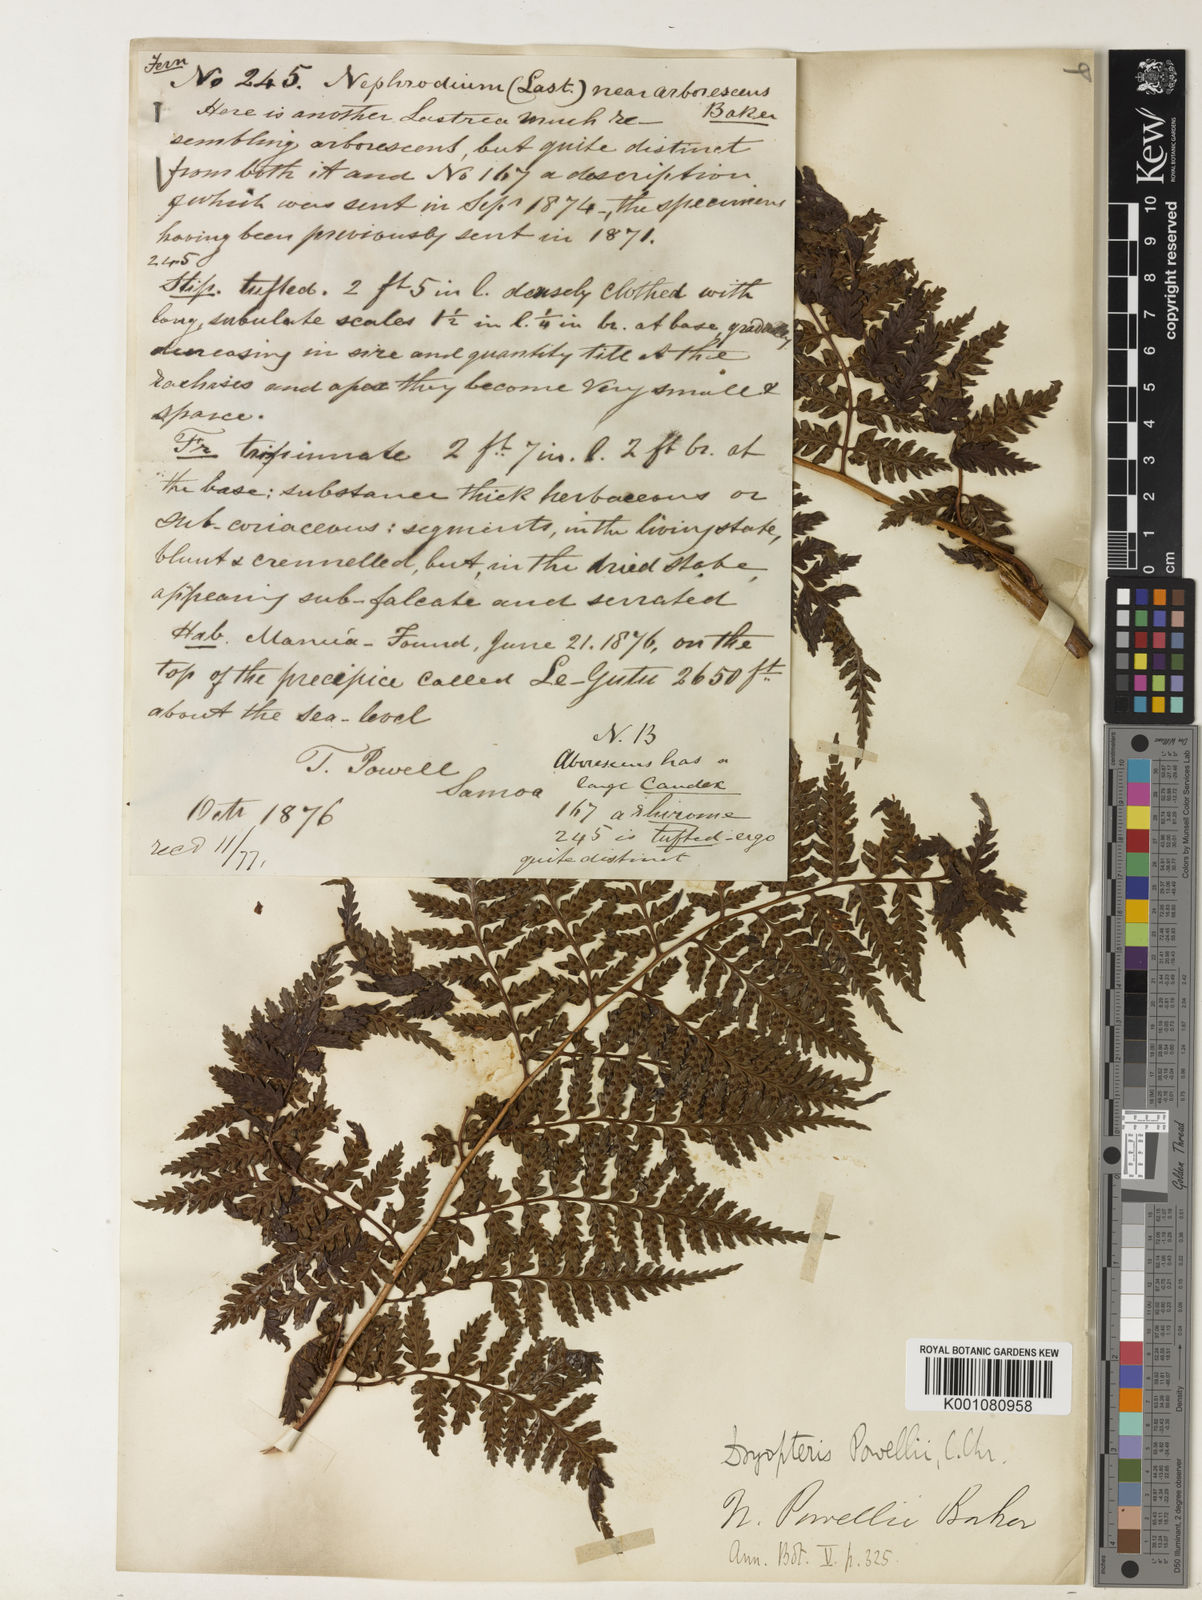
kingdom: Plantae
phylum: Tracheophyta
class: Polypodiopsida
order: Polypodiales
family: Dryopteridaceae
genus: Dryopteris
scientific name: Dryopteris arborescens
